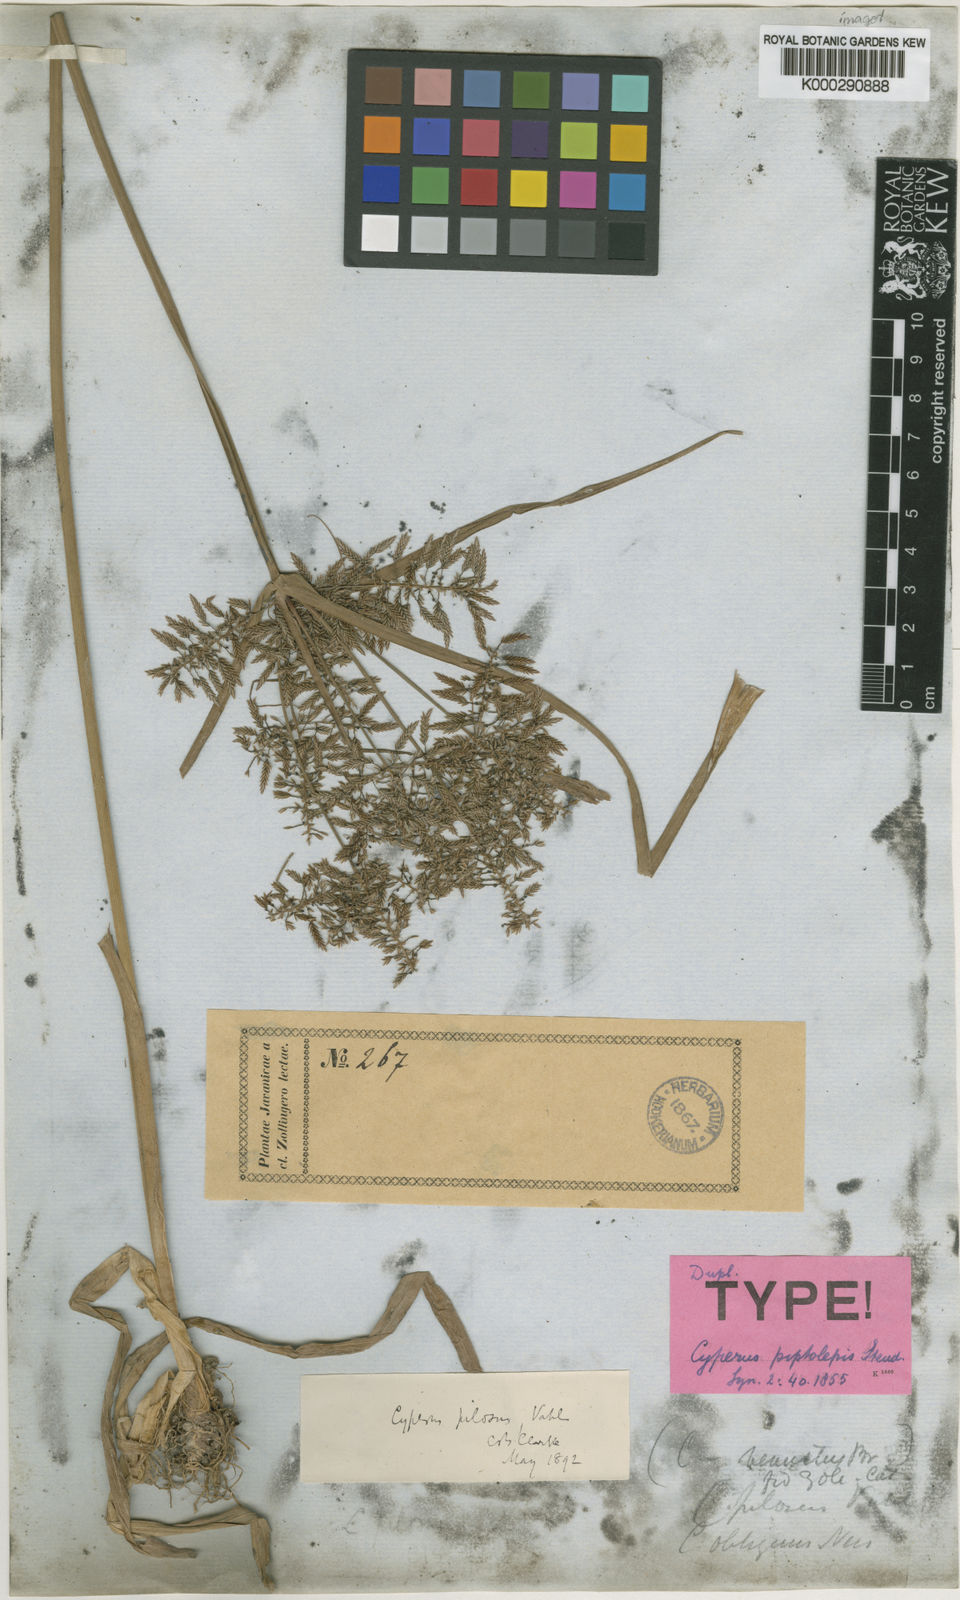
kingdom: Plantae
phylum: Tracheophyta
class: Liliopsida
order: Poales
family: Cyperaceae
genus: Cyperus
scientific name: Cyperus pilosus
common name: Fuzzy flatsedge
